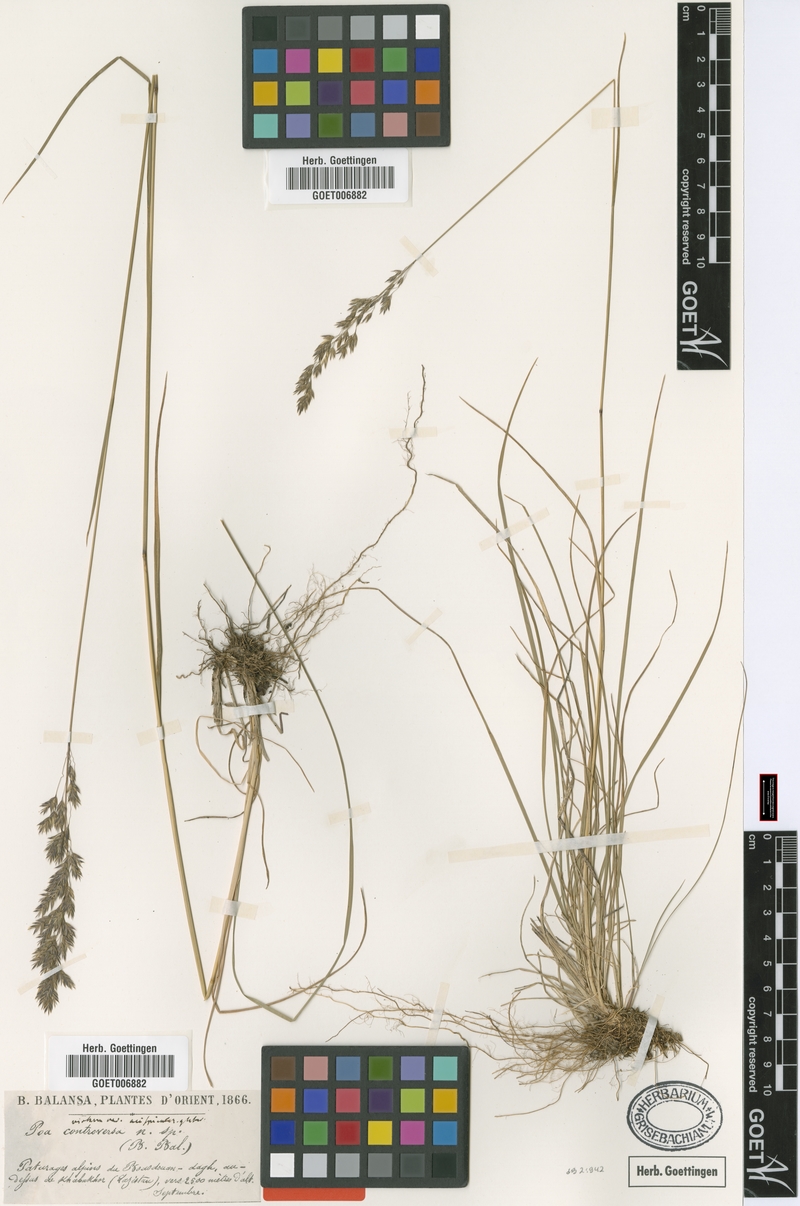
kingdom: Plantae
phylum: Tracheophyta
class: Liliopsida
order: Poales
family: Poaceae
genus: Poa
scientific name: Poa longifolia
